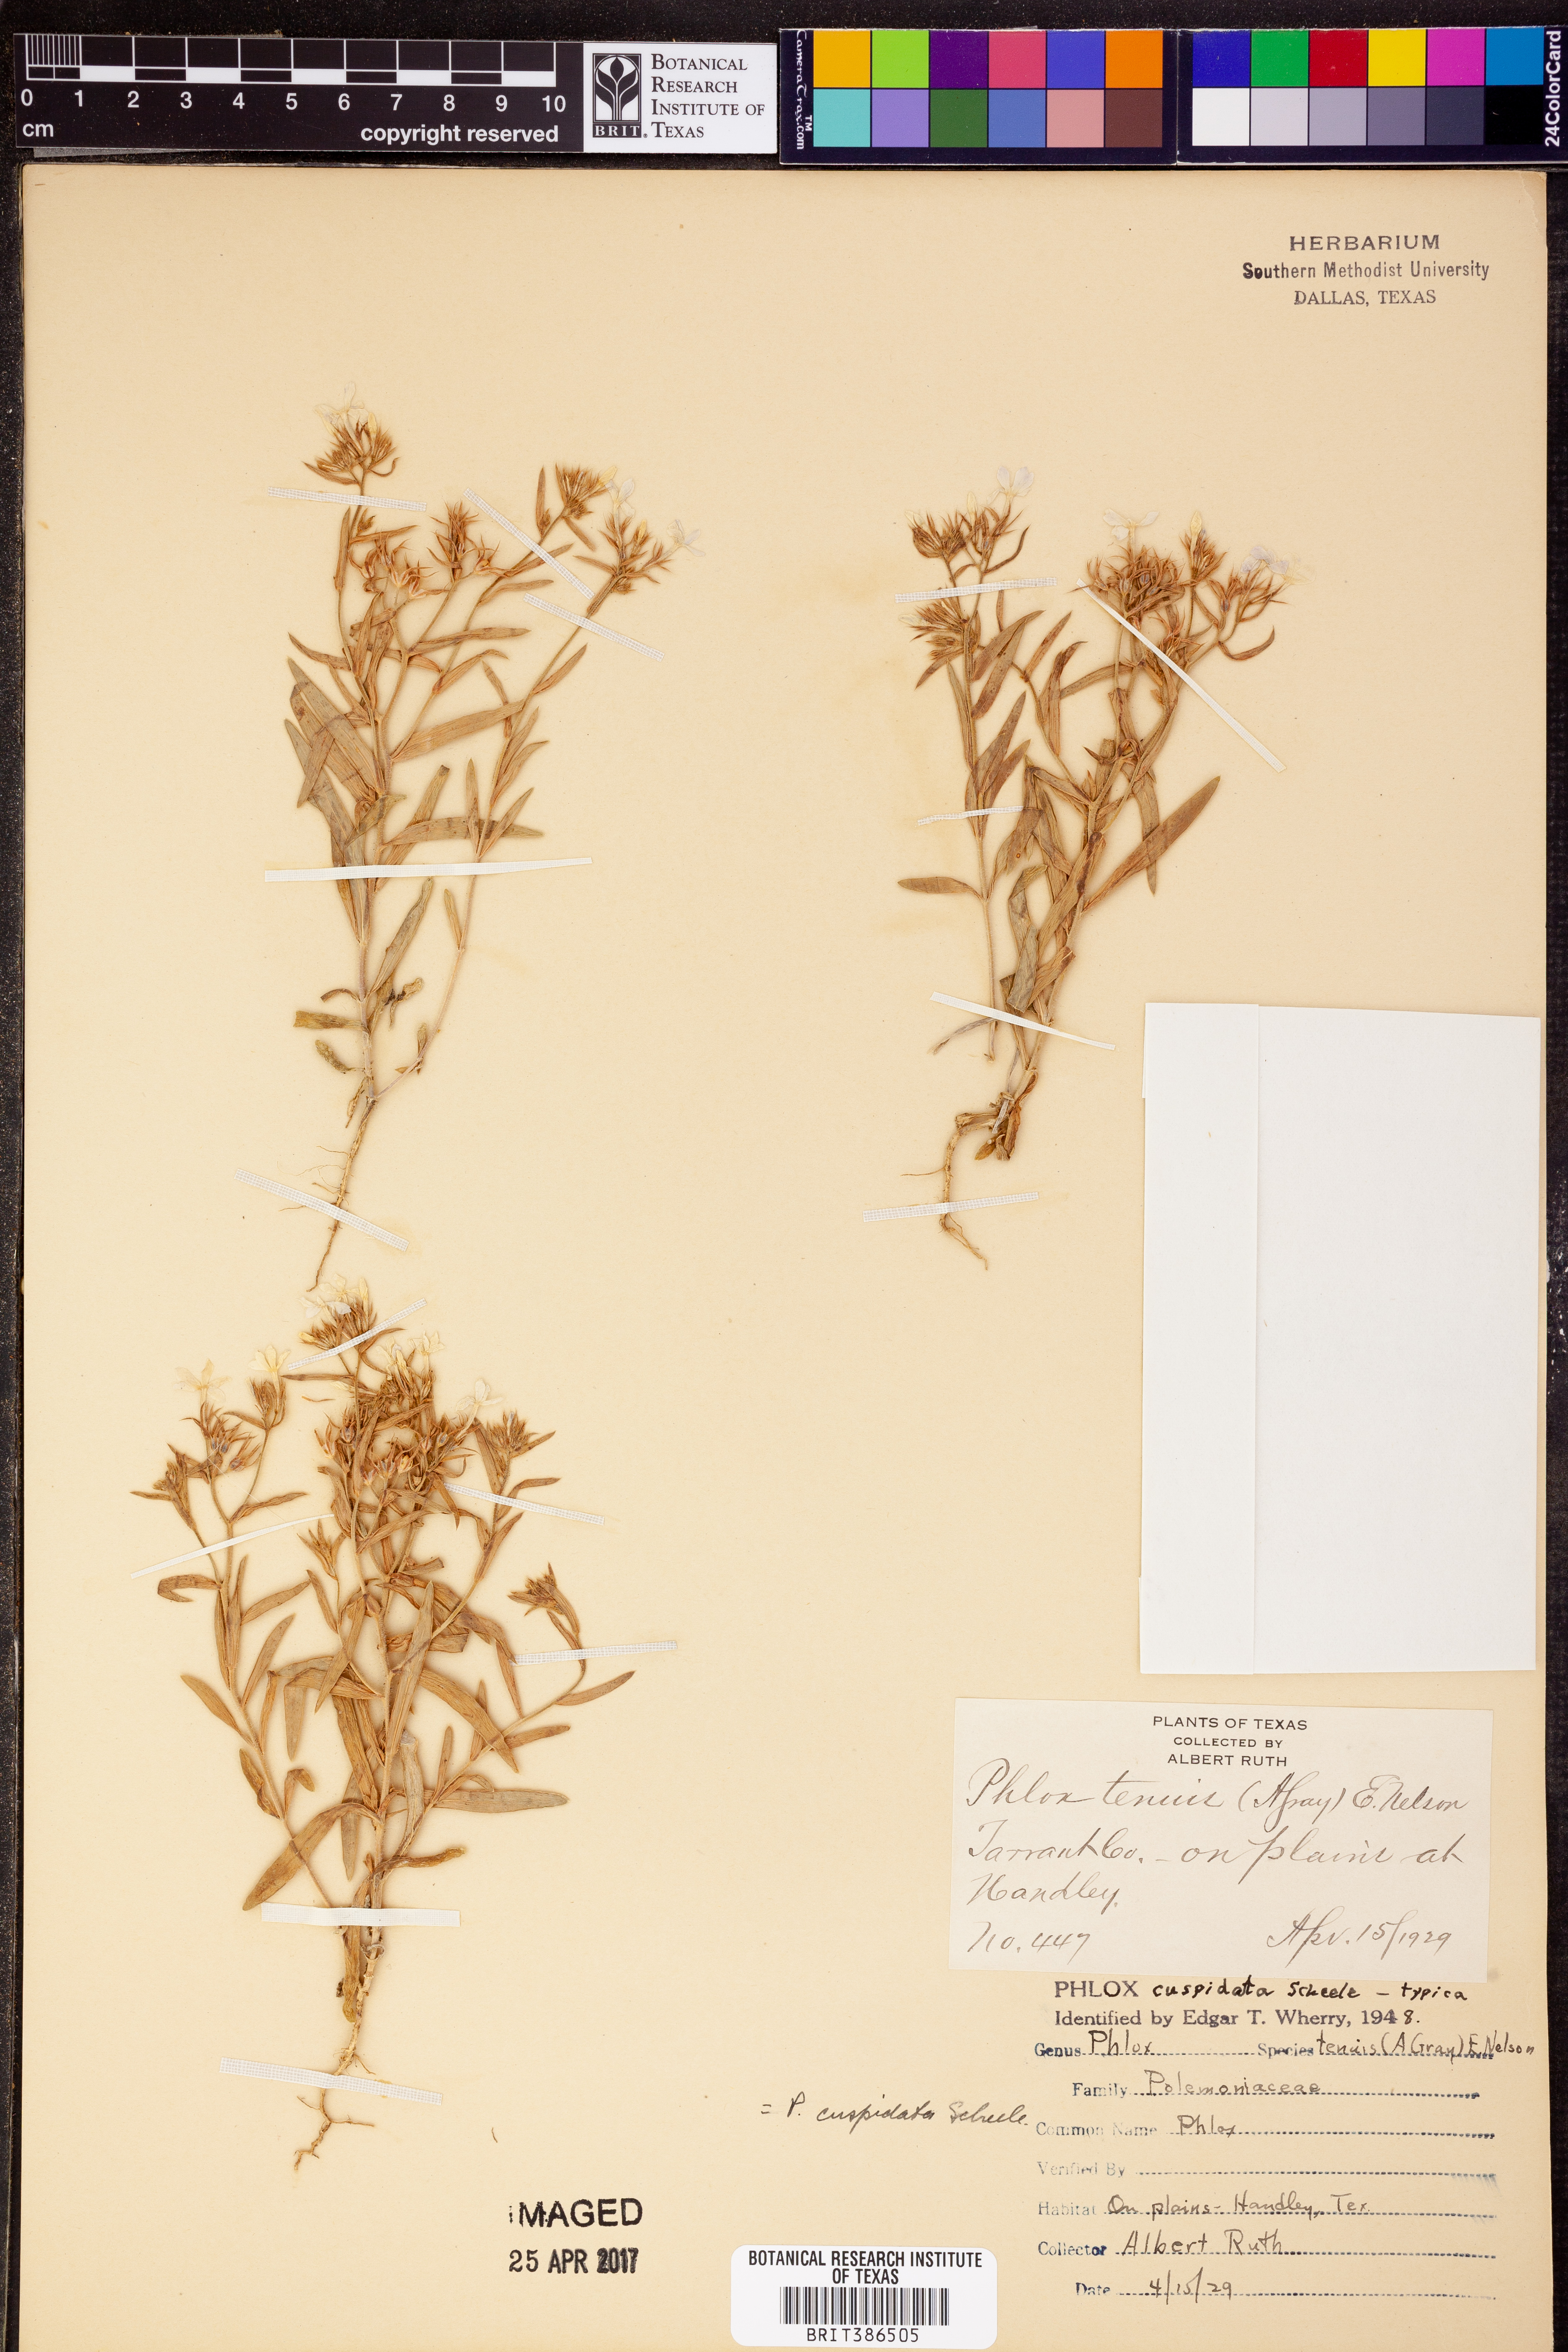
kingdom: Plantae
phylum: Tracheophyta
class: Magnoliopsida
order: Ericales
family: Polemoniaceae
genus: Phlox
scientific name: Phlox cuspidata
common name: Pointed phlox
